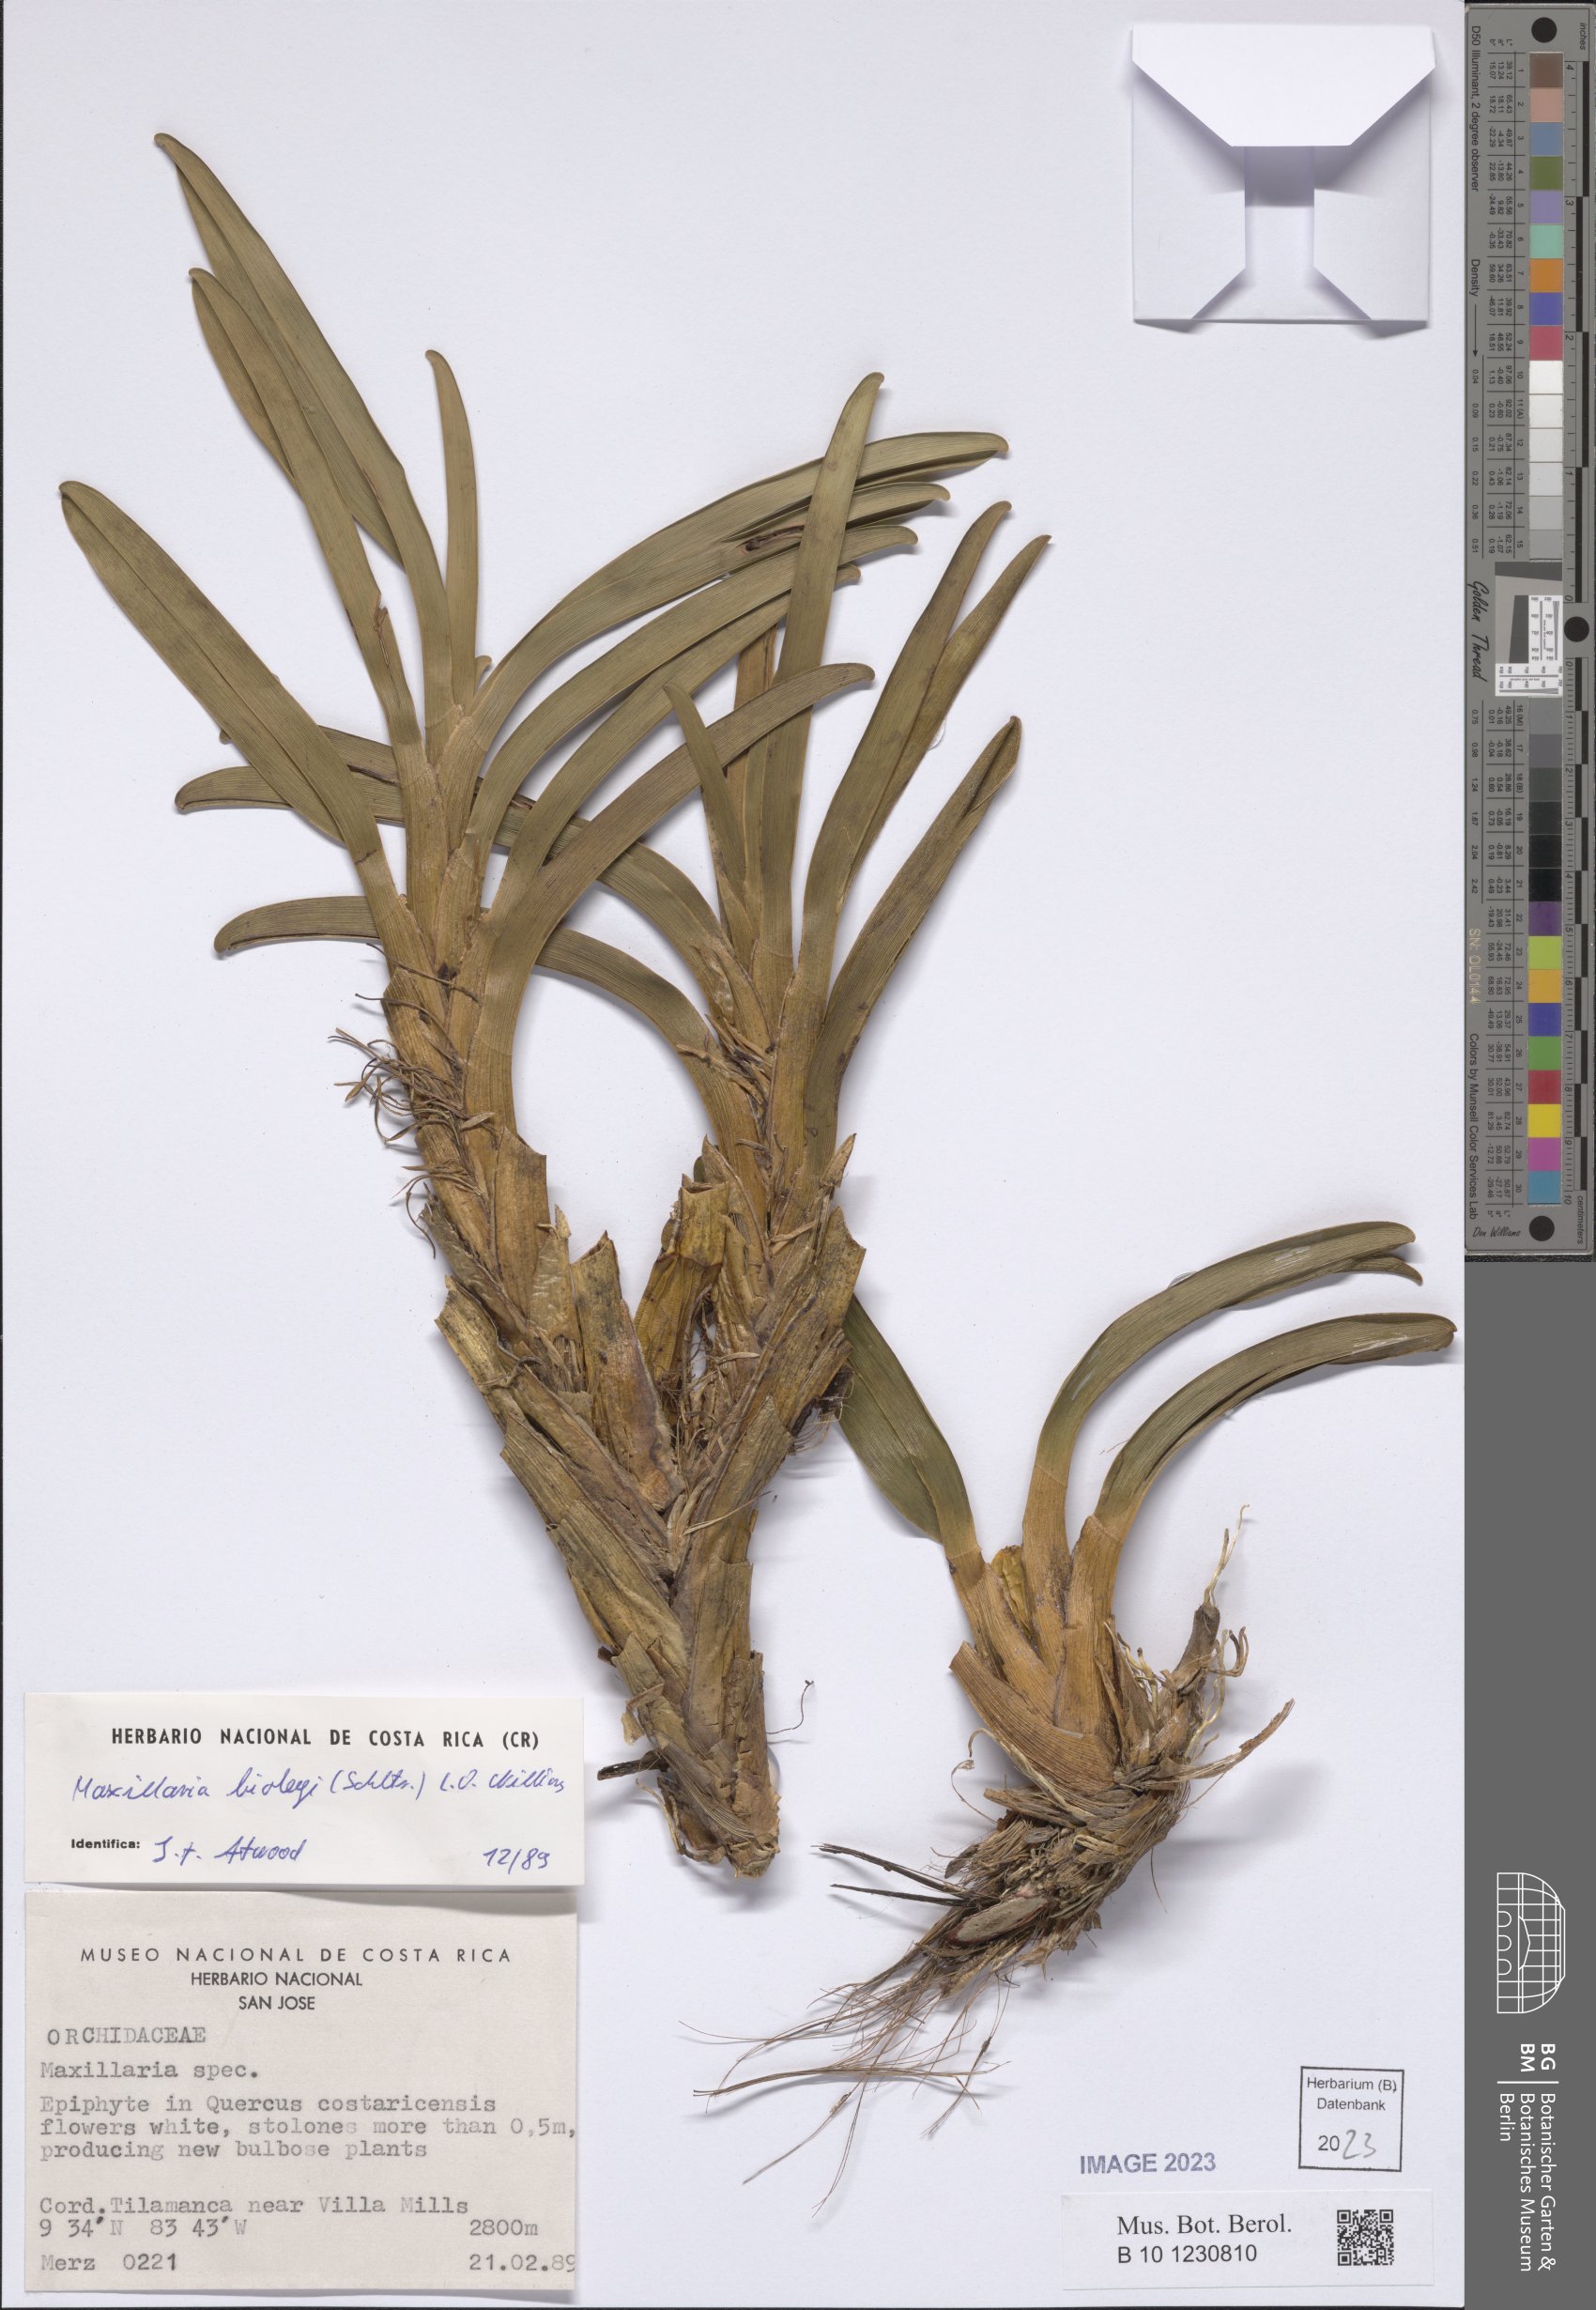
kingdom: Plantae
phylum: Tracheophyta
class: Liliopsida
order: Asparagales
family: Orchidaceae
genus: Maxillaria
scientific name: Maxillaria biolleyi
